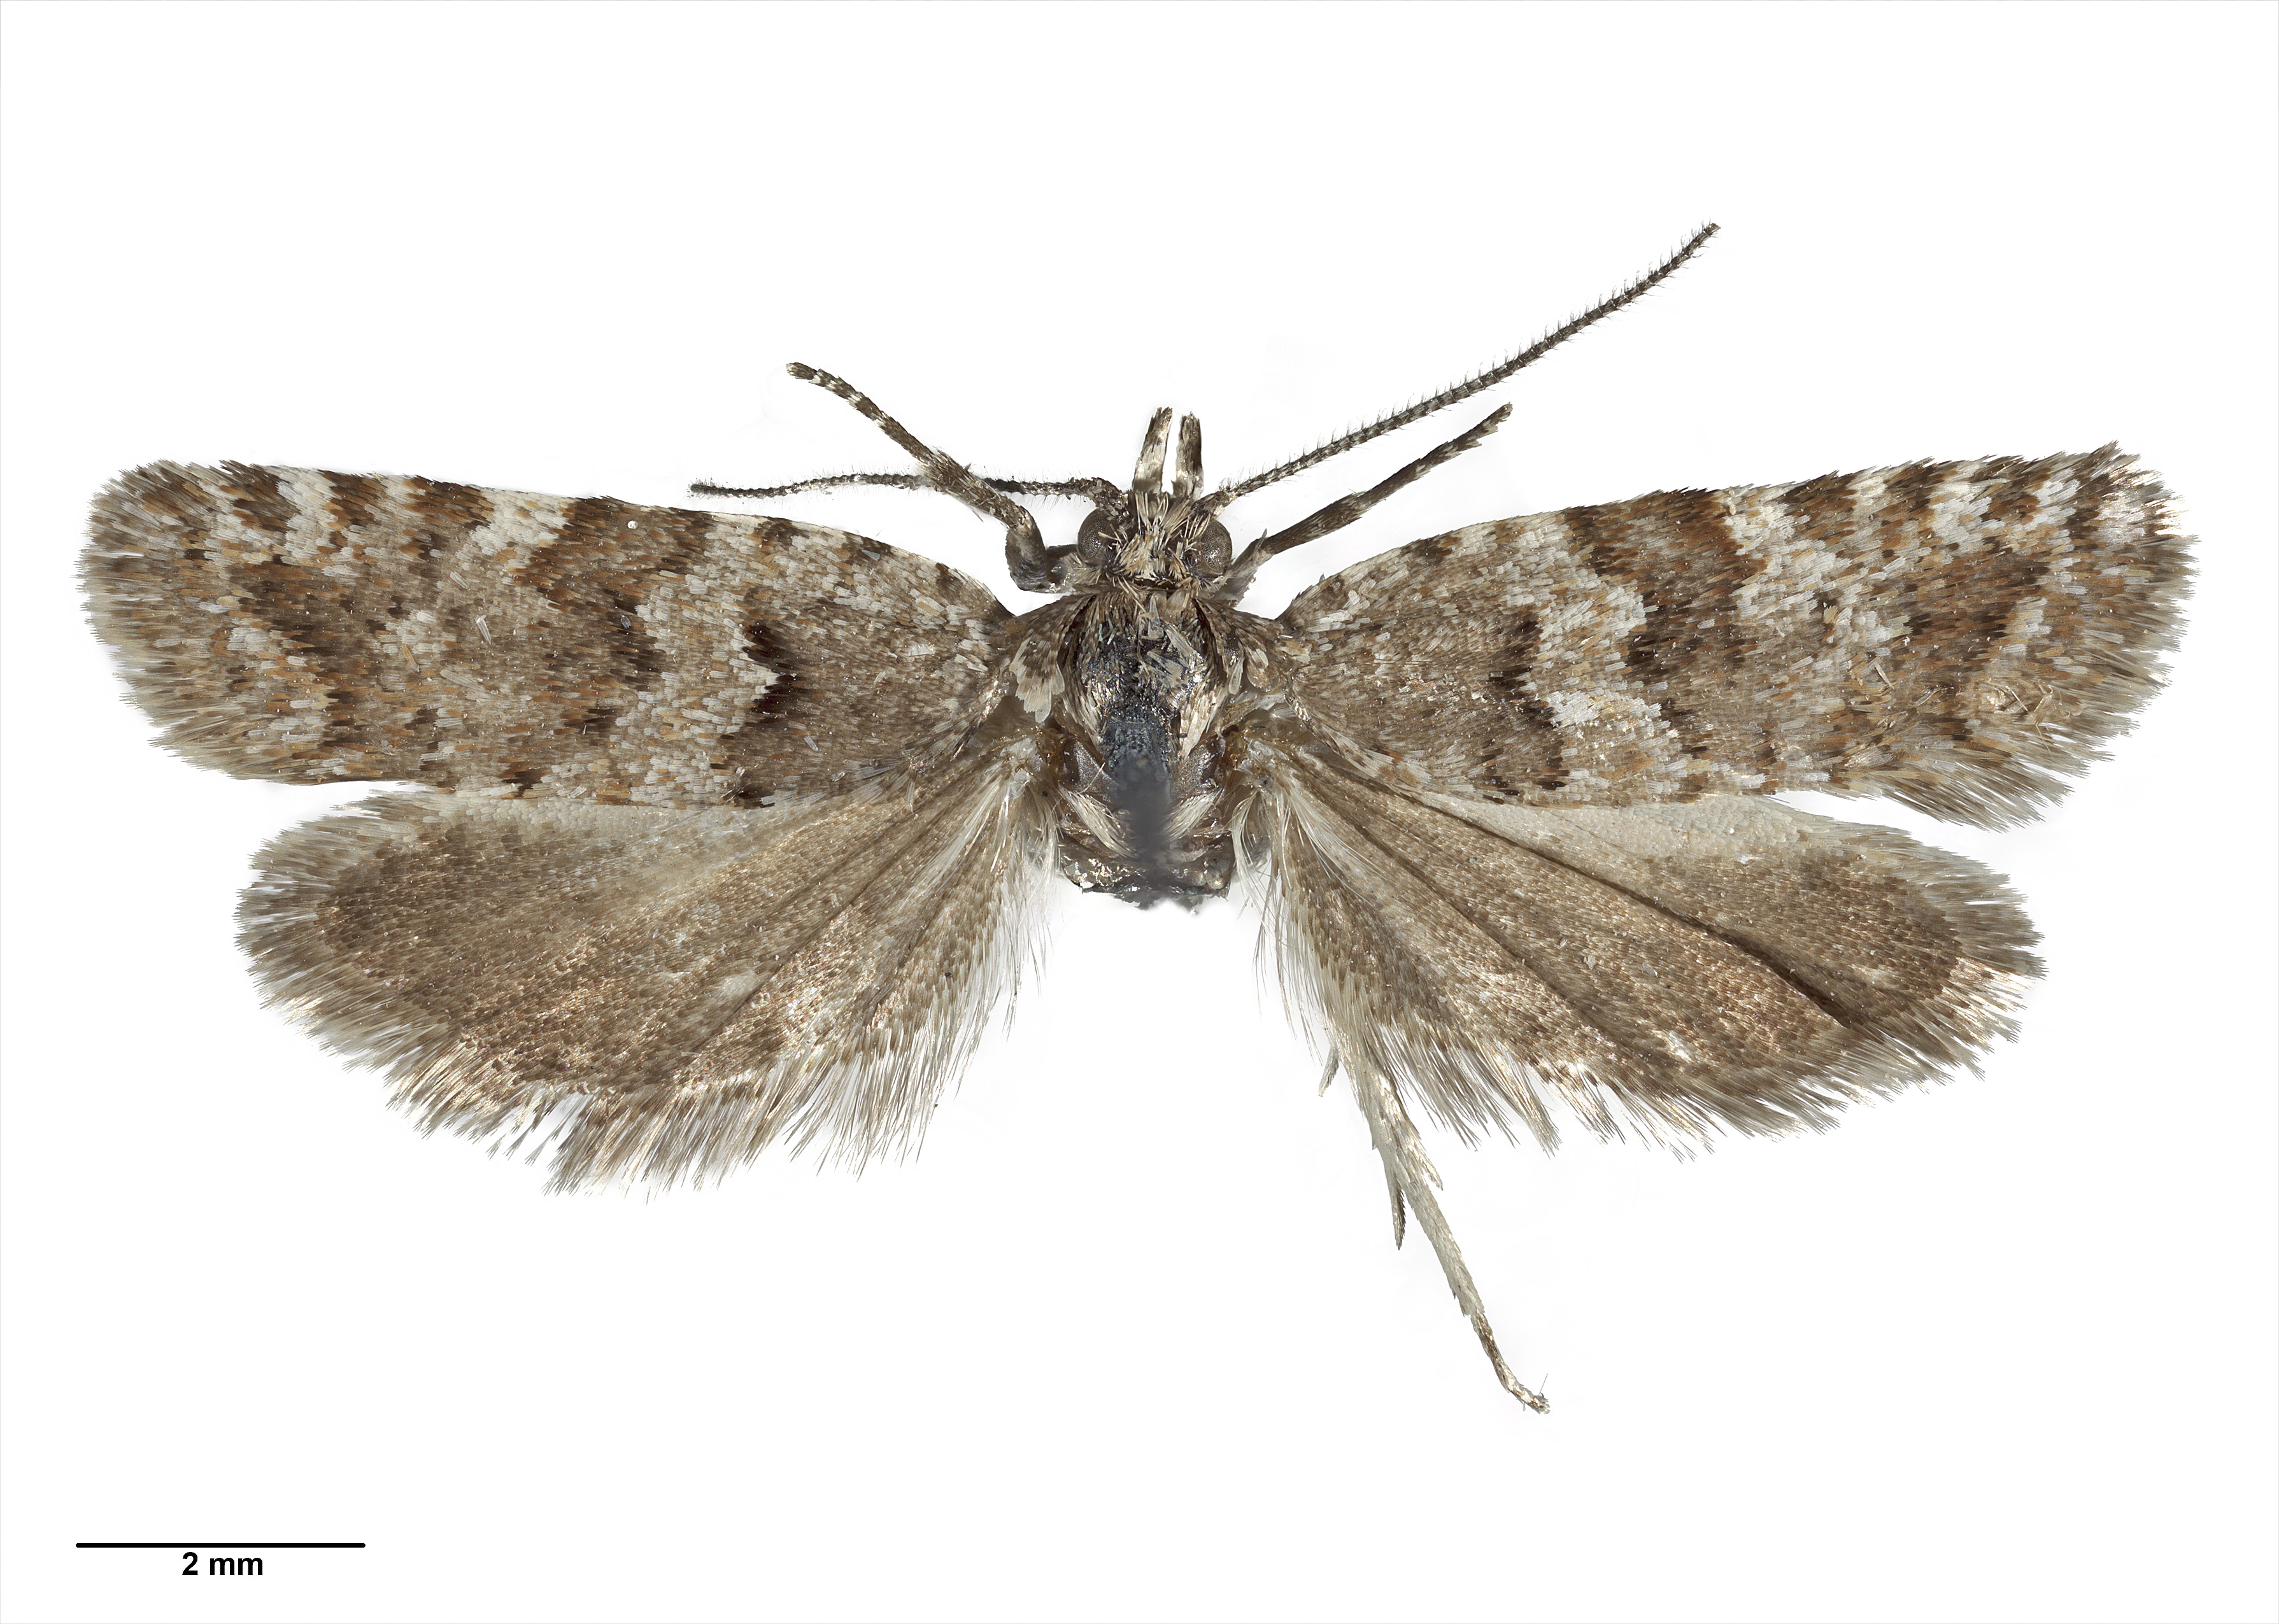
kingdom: Animalia
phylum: Arthropoda
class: Insecta
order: Lepidoptera
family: Tortricidae
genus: Epichorista
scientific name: Epichorista mimica
